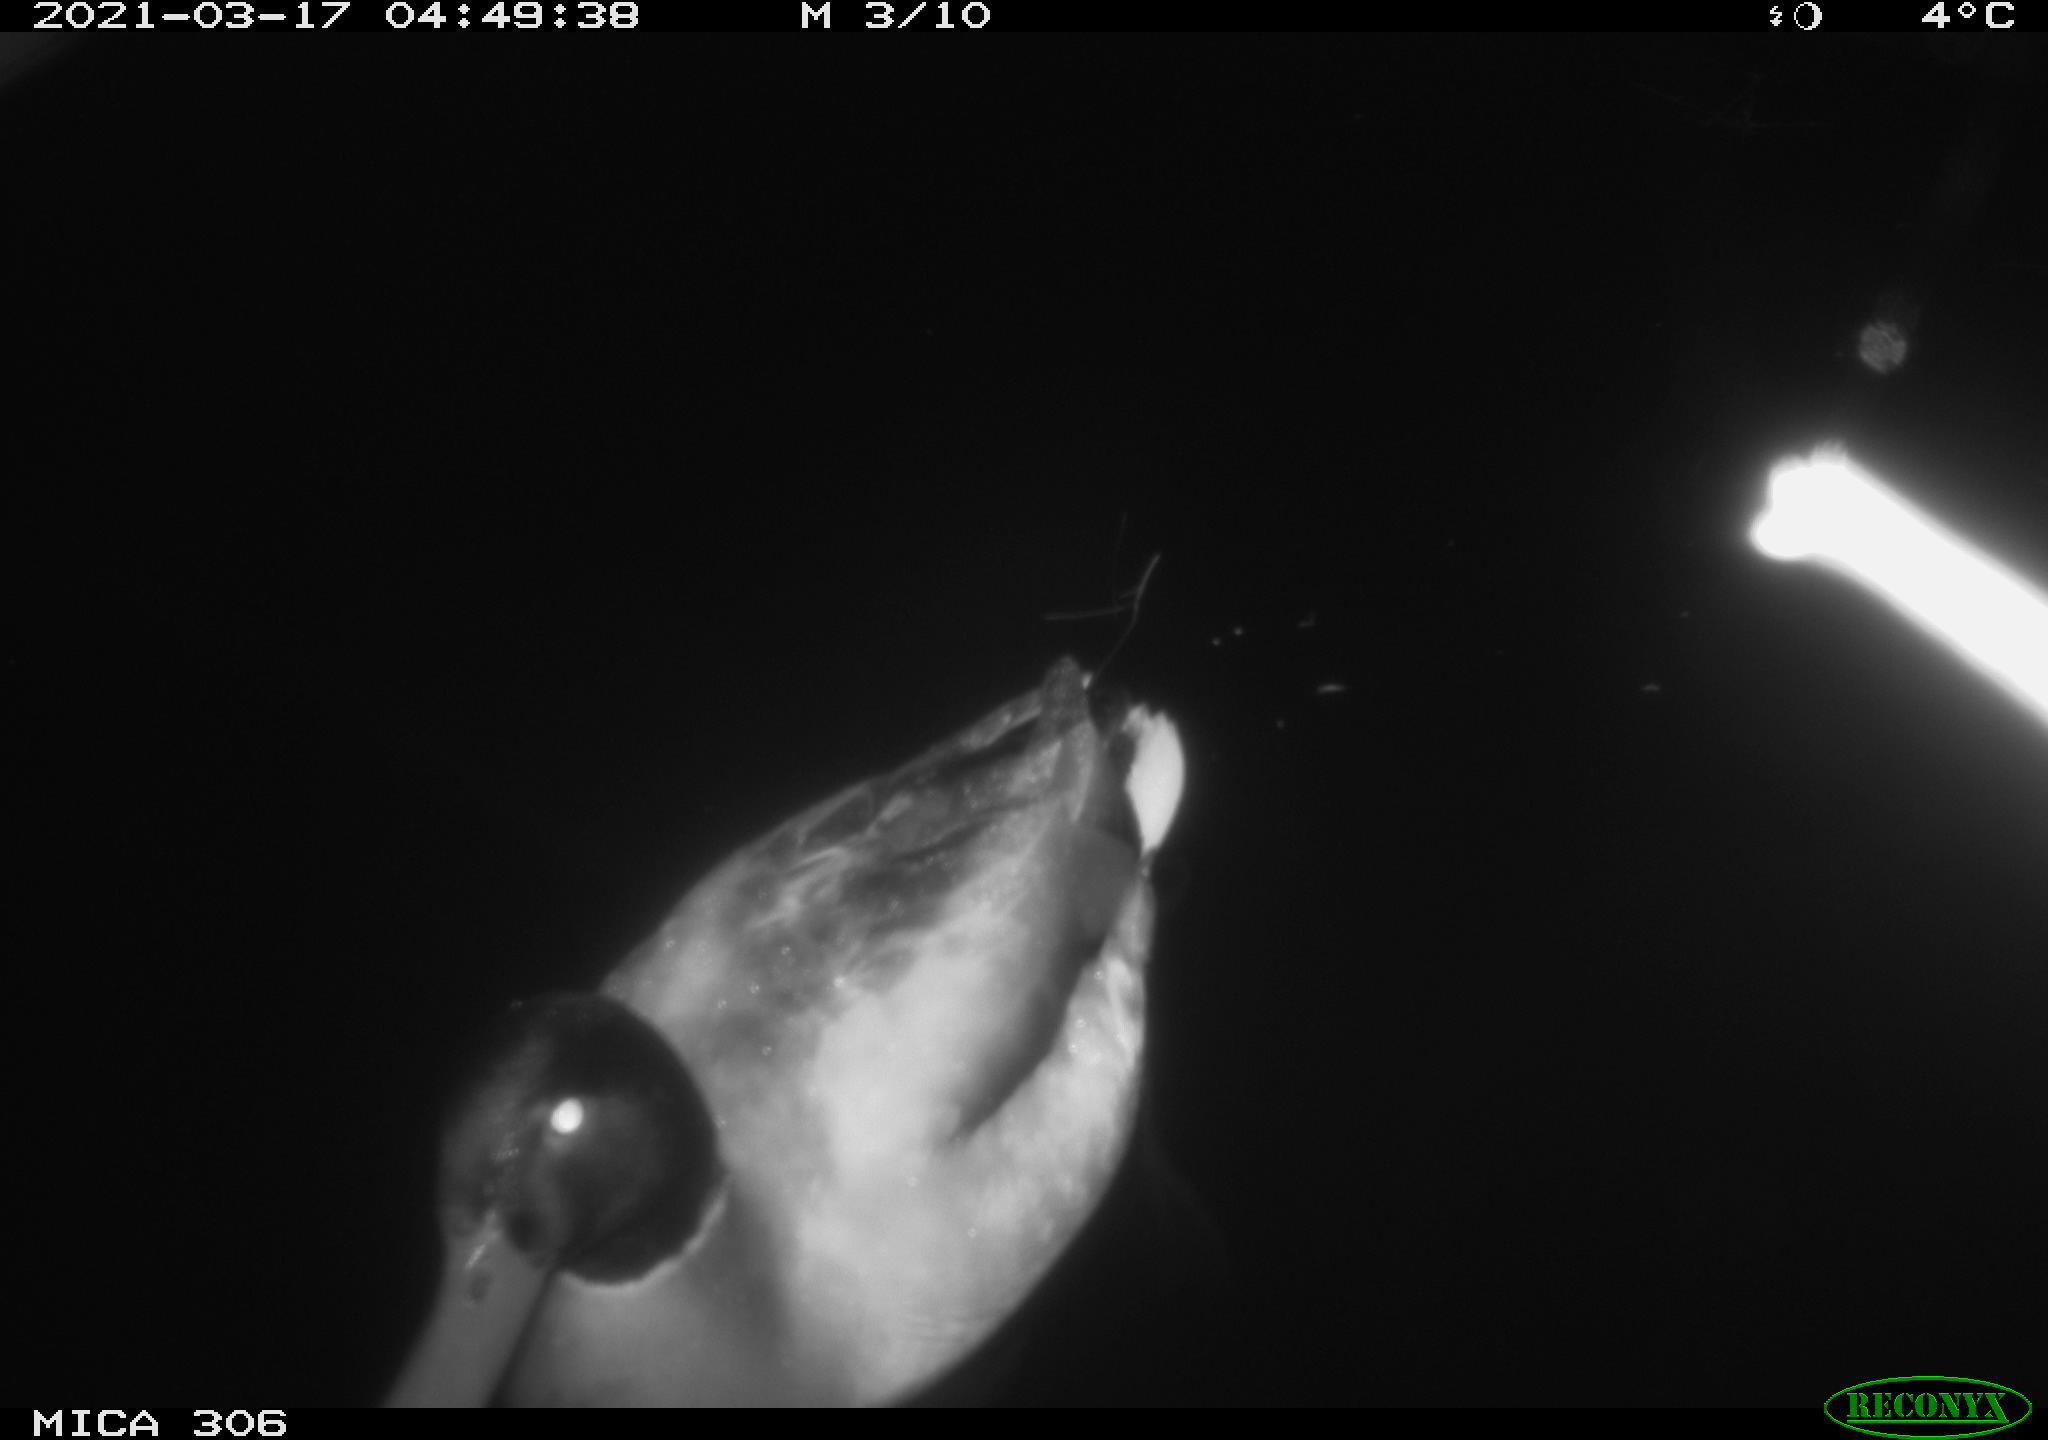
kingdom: Animalia
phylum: Chordata
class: Aves
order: Anseriformes
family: Anatidae
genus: Anas
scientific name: Anas platyrhynchos
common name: Mallard
